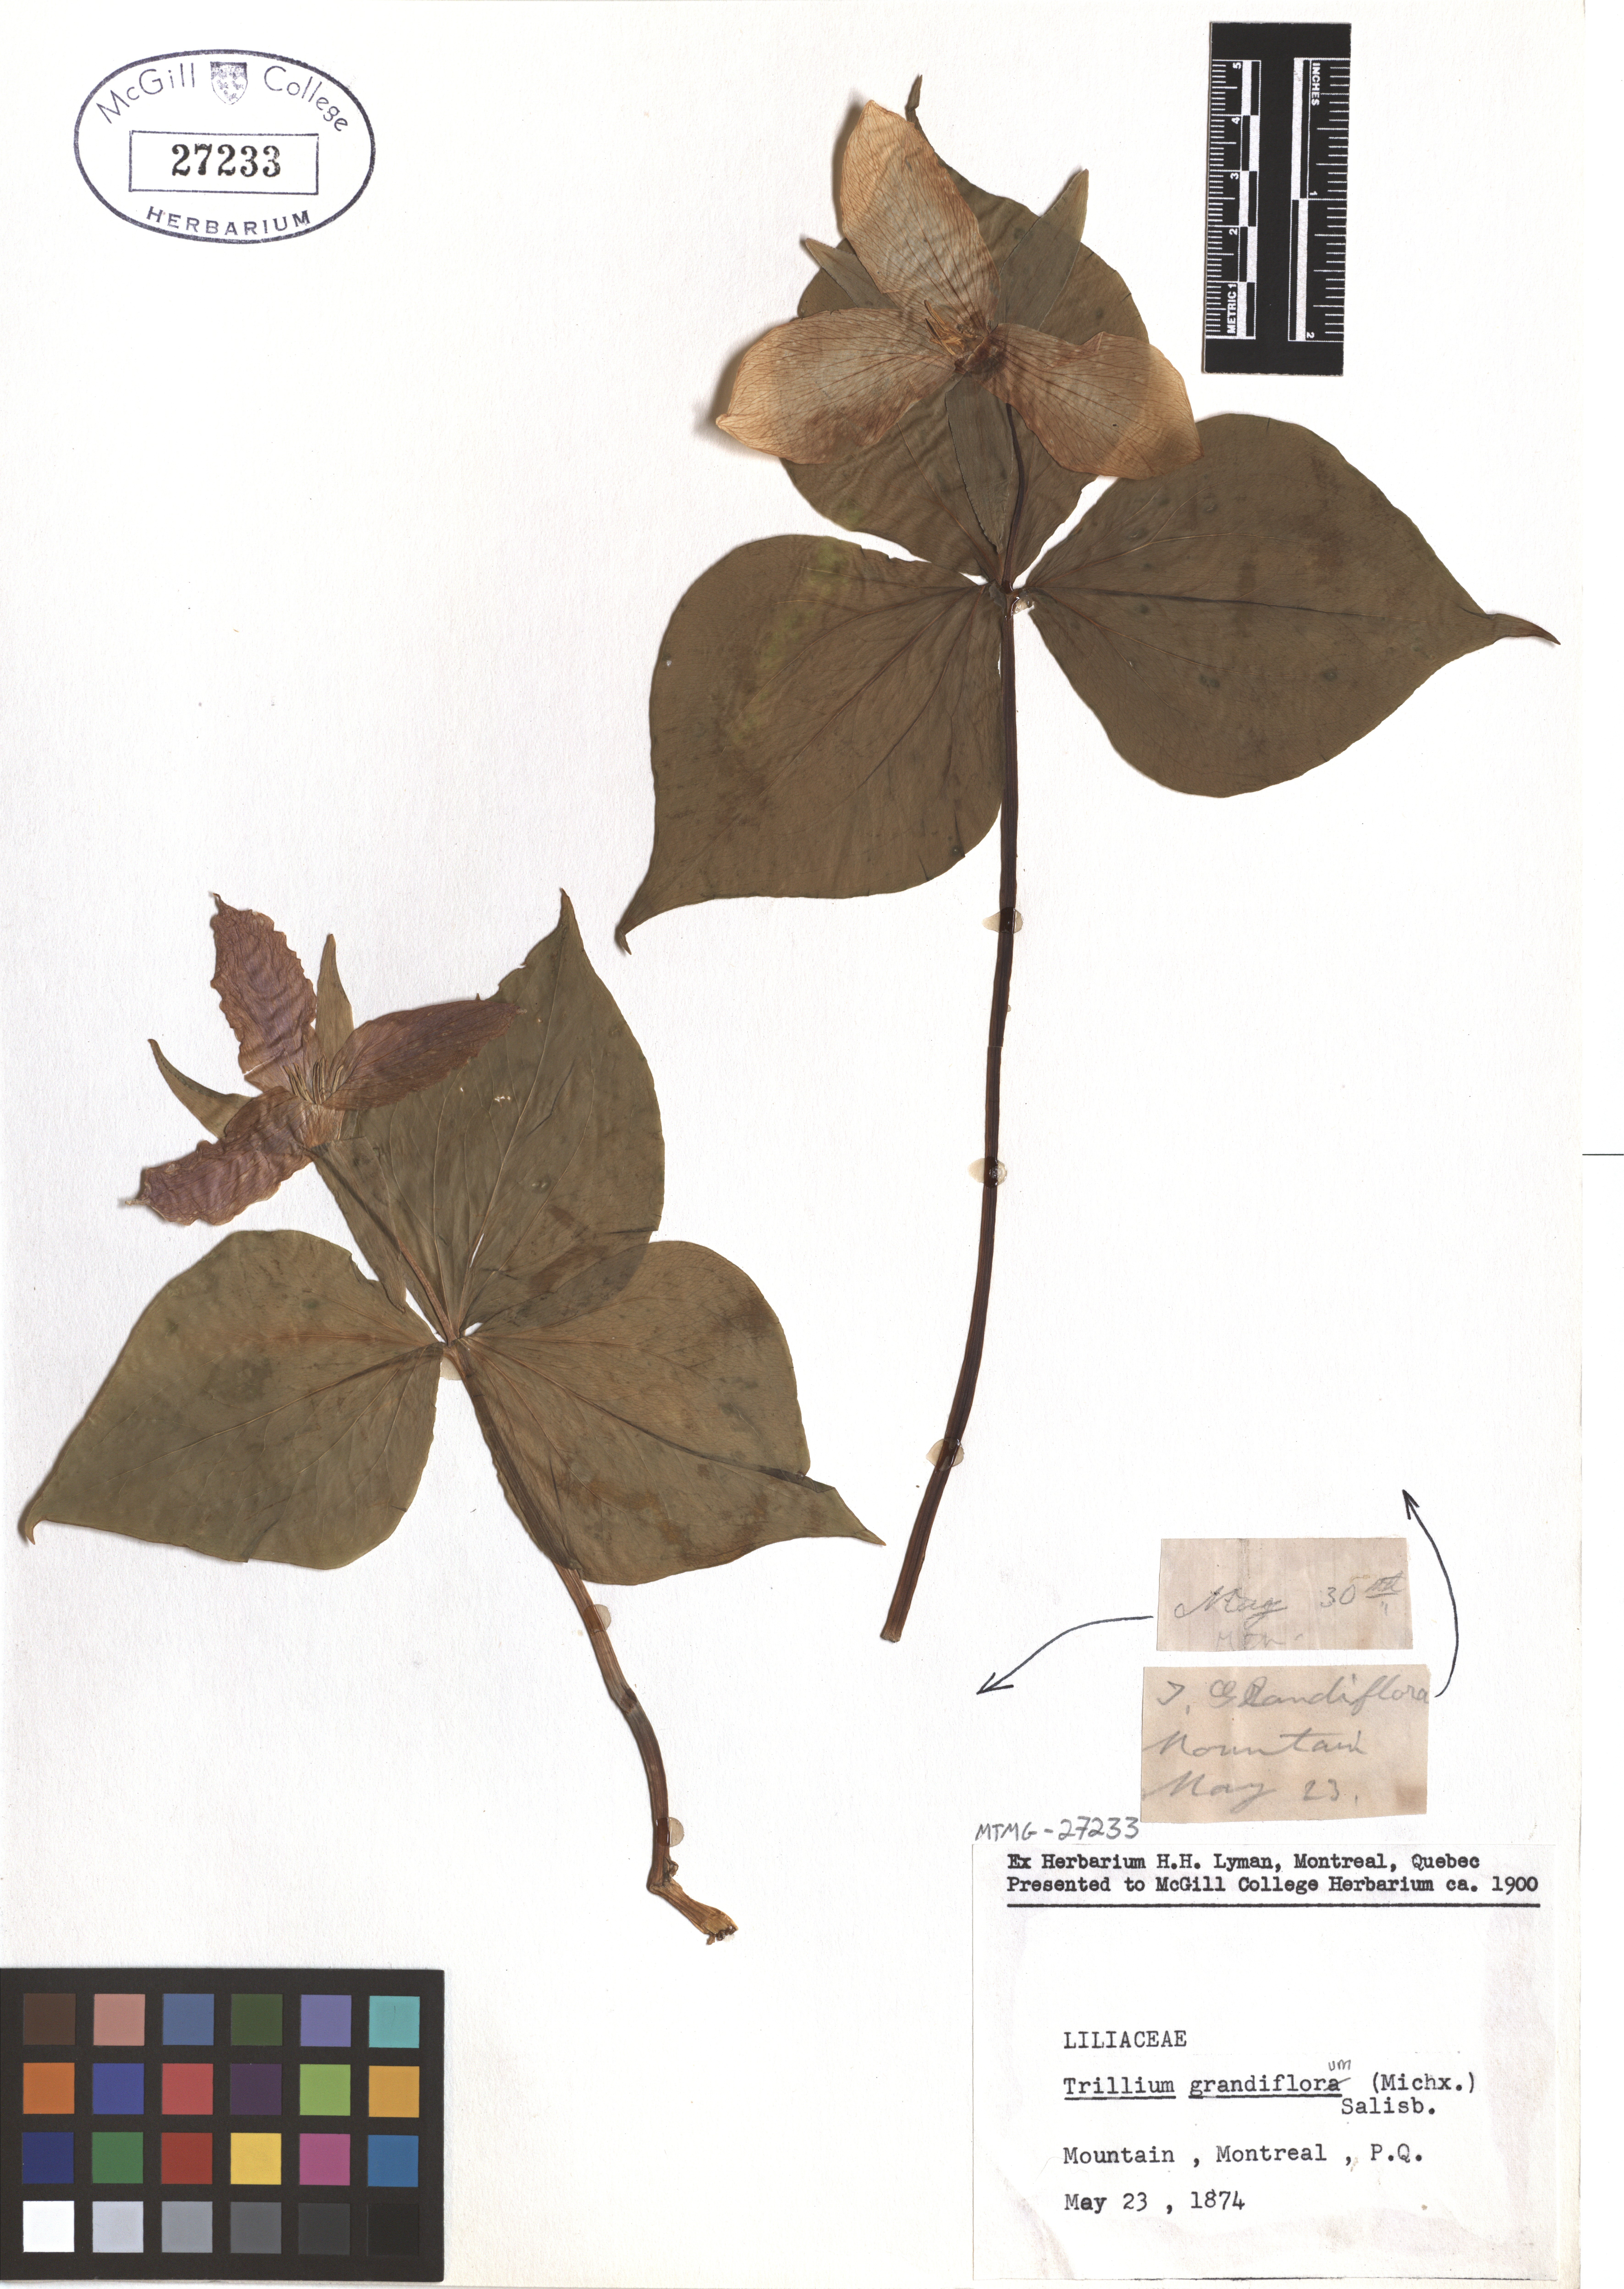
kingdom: Plantae
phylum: Tracheophyta
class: Liliopsida
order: Liliales
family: Melanthiaceae
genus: Trillium
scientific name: Trillium grandiflorum
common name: Great white trillium
